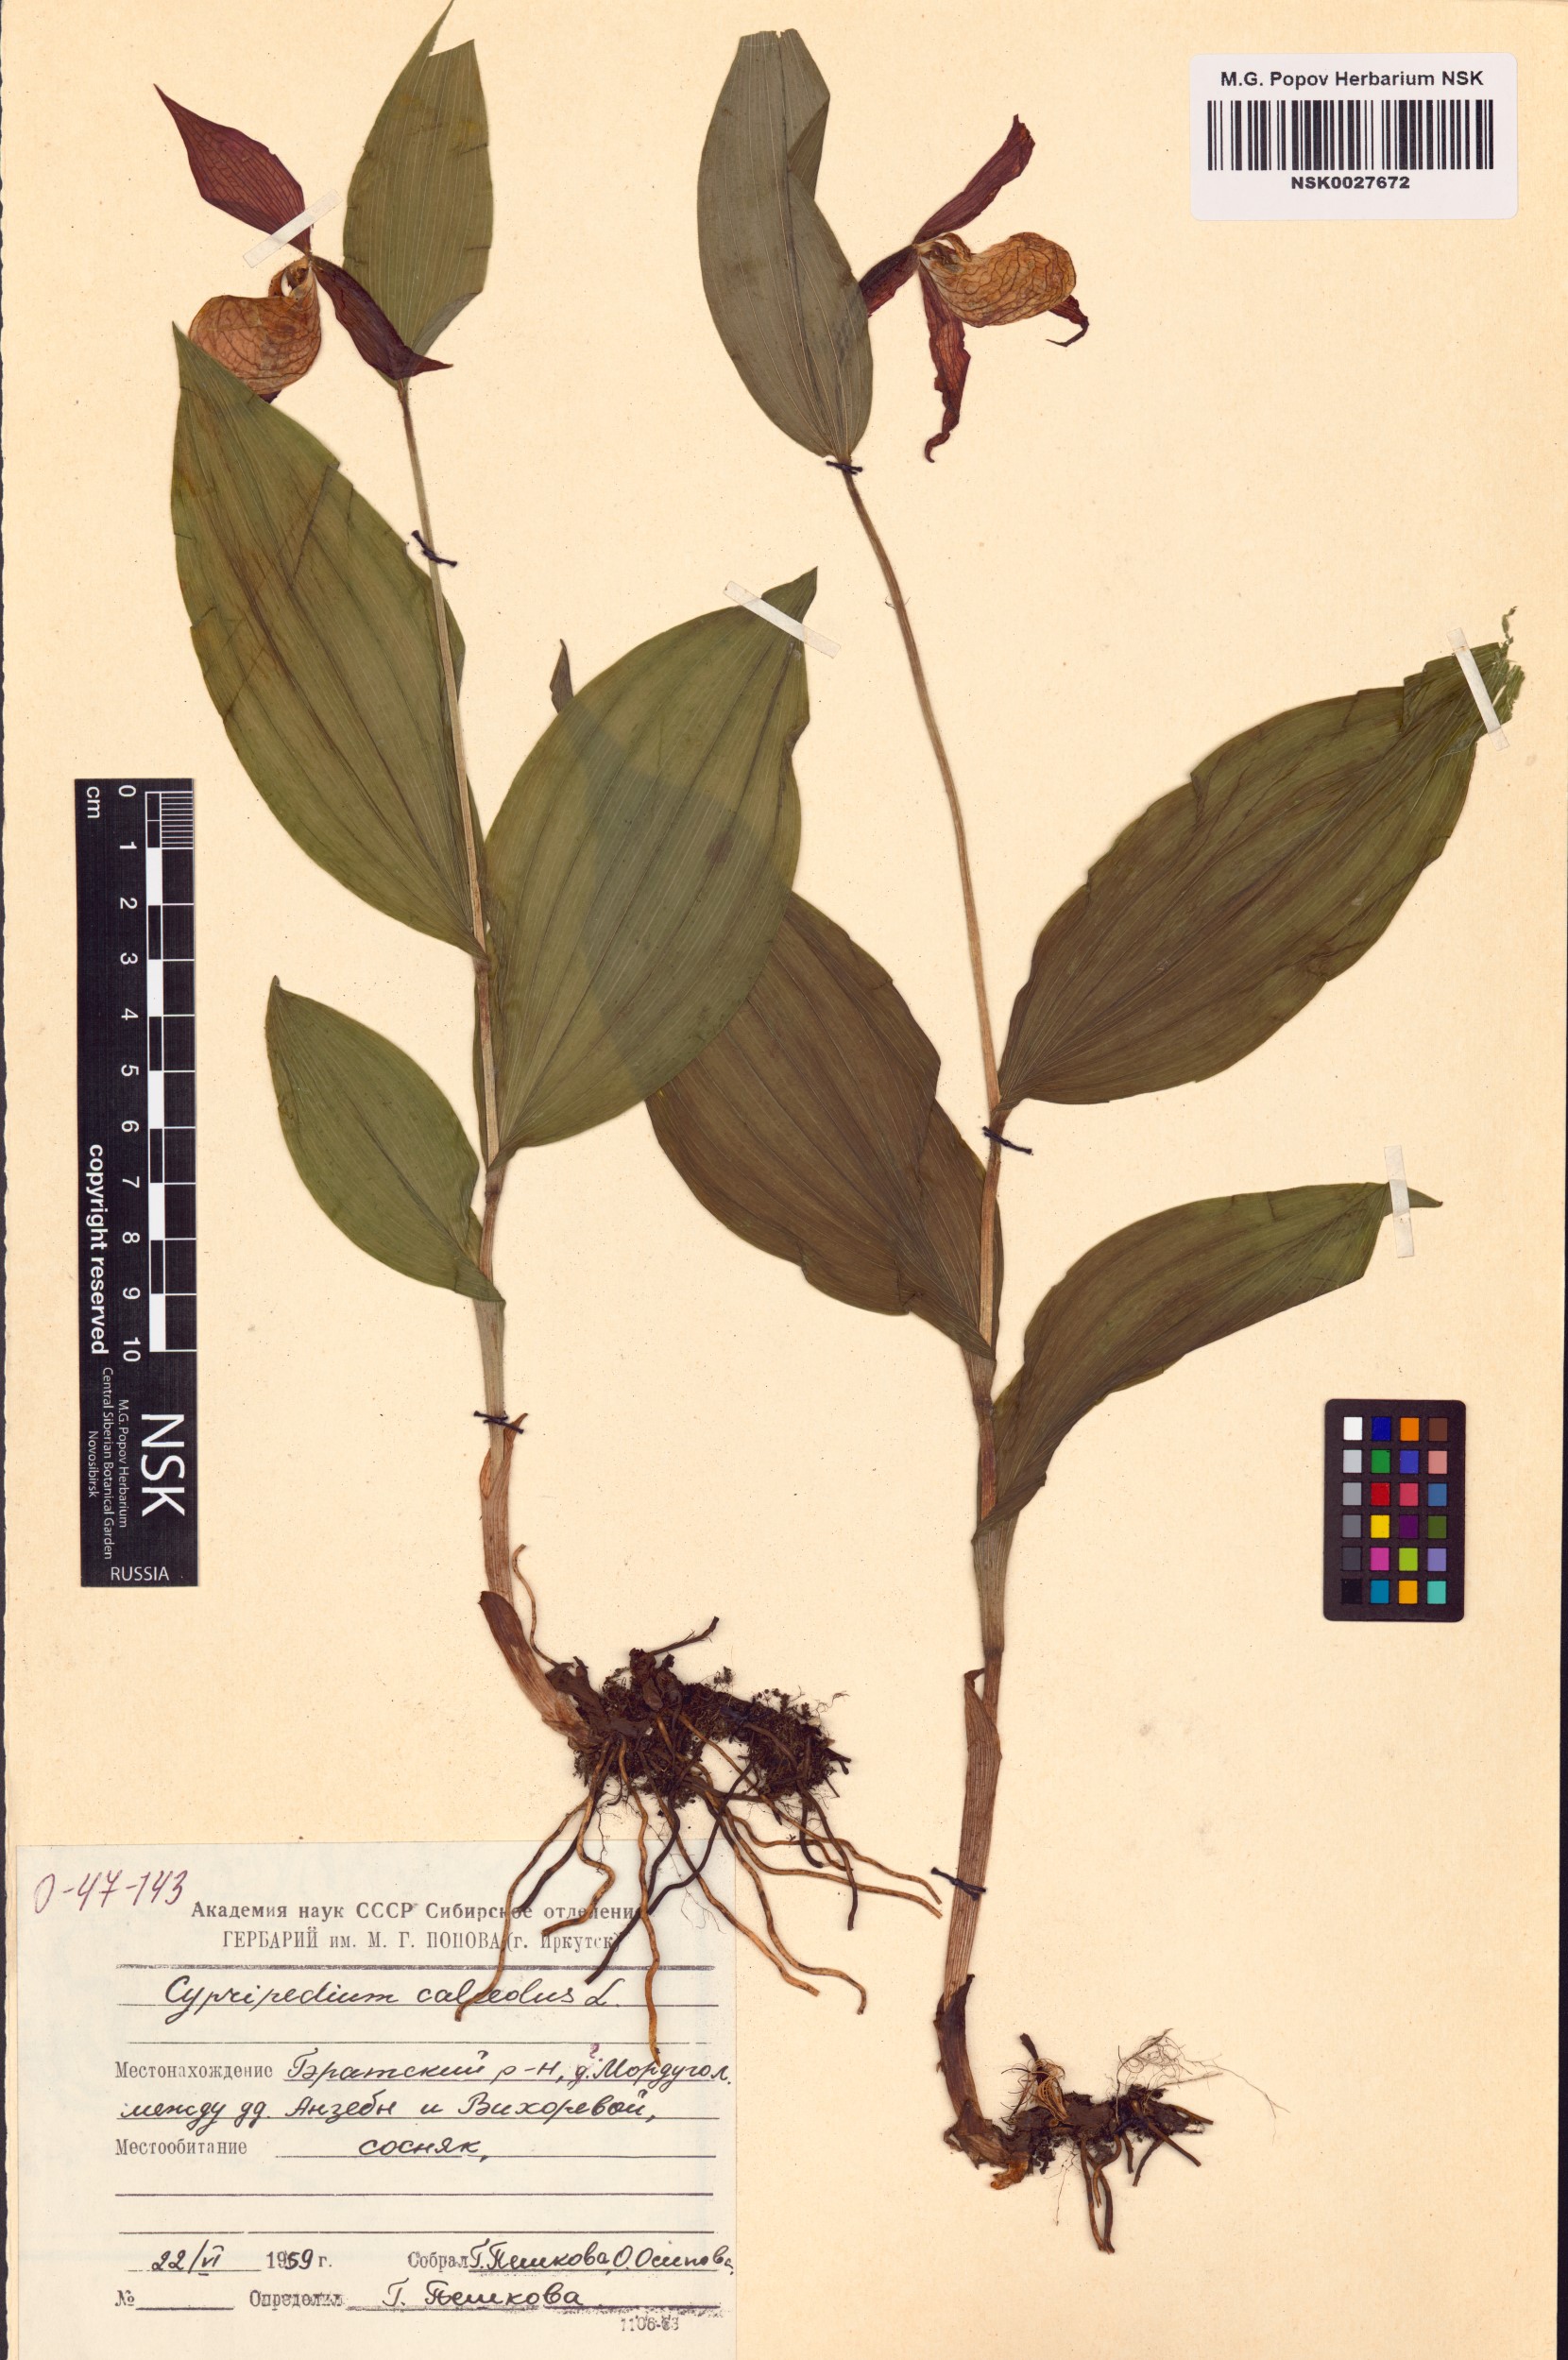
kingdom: Plantae
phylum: Tracheophyta
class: Liliopsida
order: Asparagales
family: Orchidaceae
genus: Cypripedium
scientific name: Cypripedium calceolus
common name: Lady's-slipper
